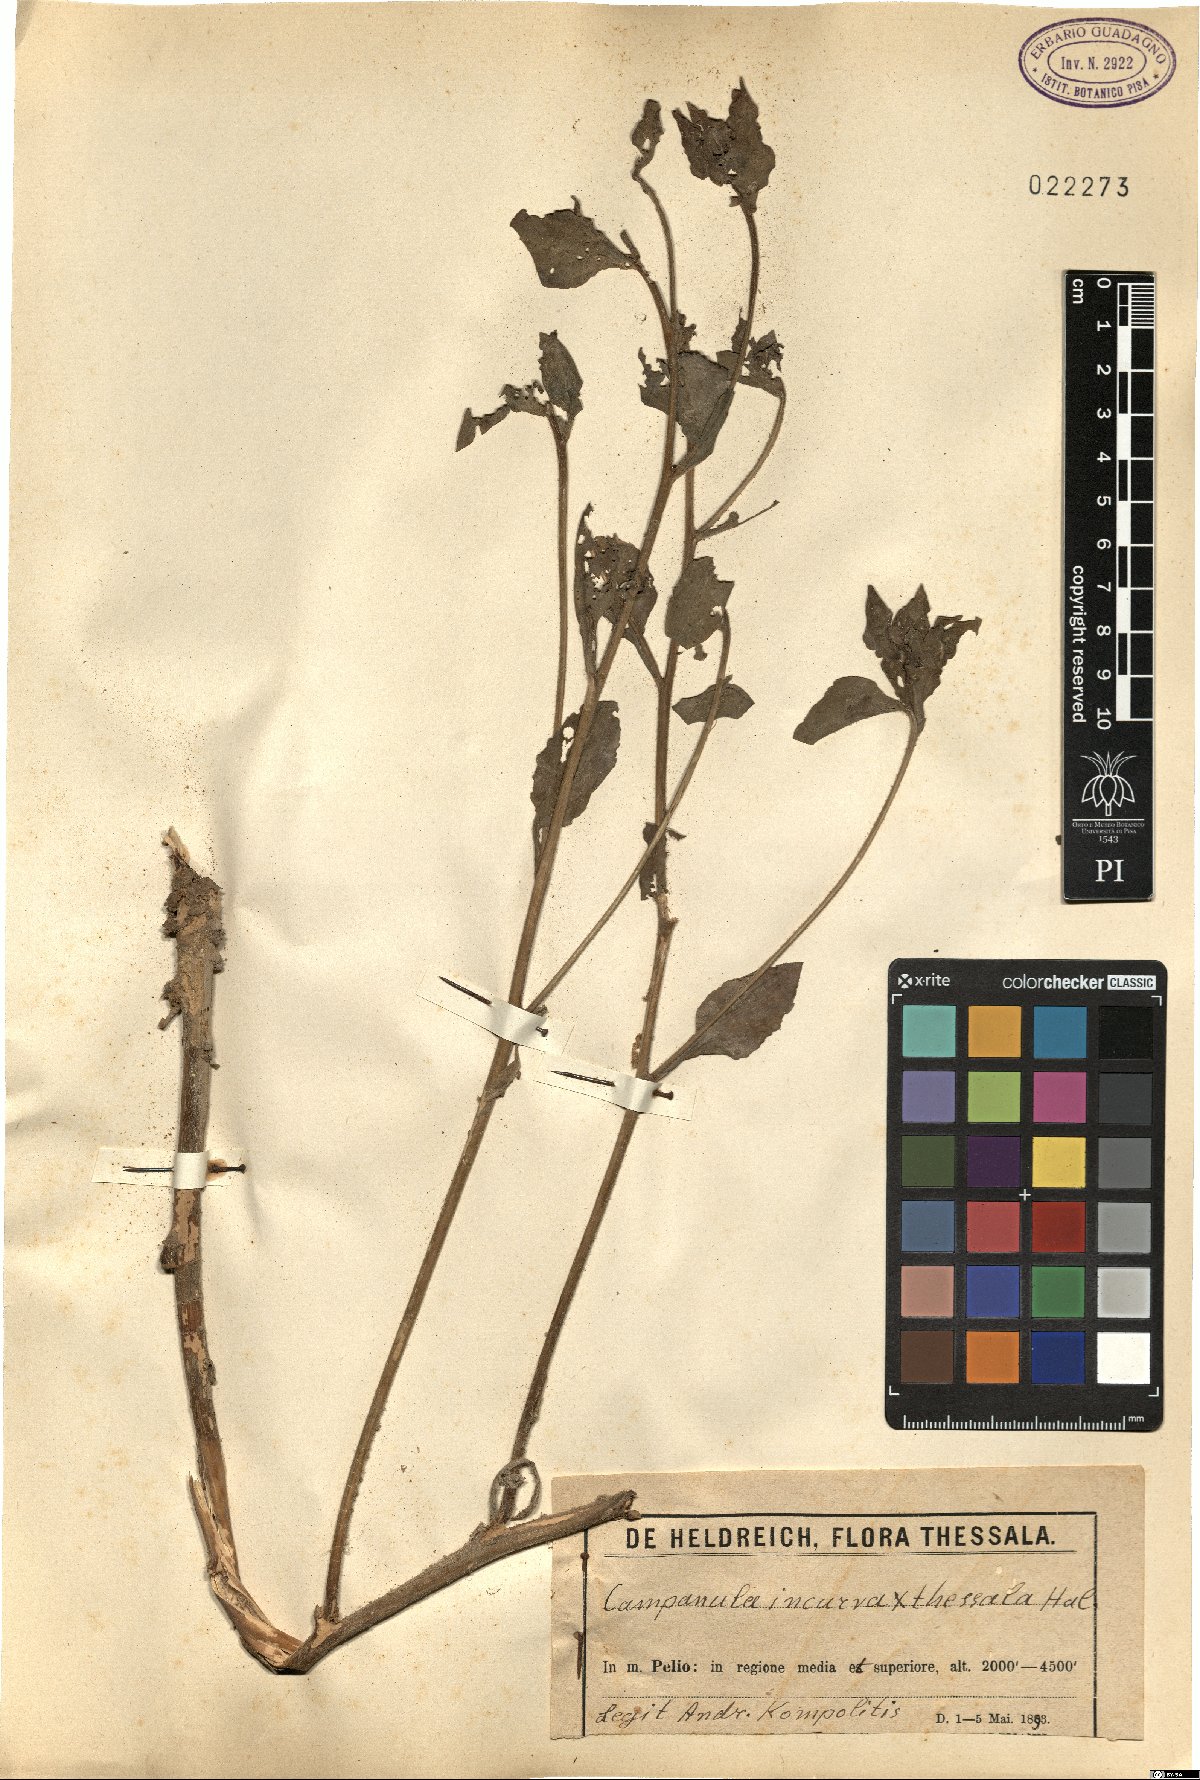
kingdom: Plantae
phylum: Tracheophyta
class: Magnoliopsida
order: Asterales
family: Campanulaceae
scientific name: Campanulaceae
